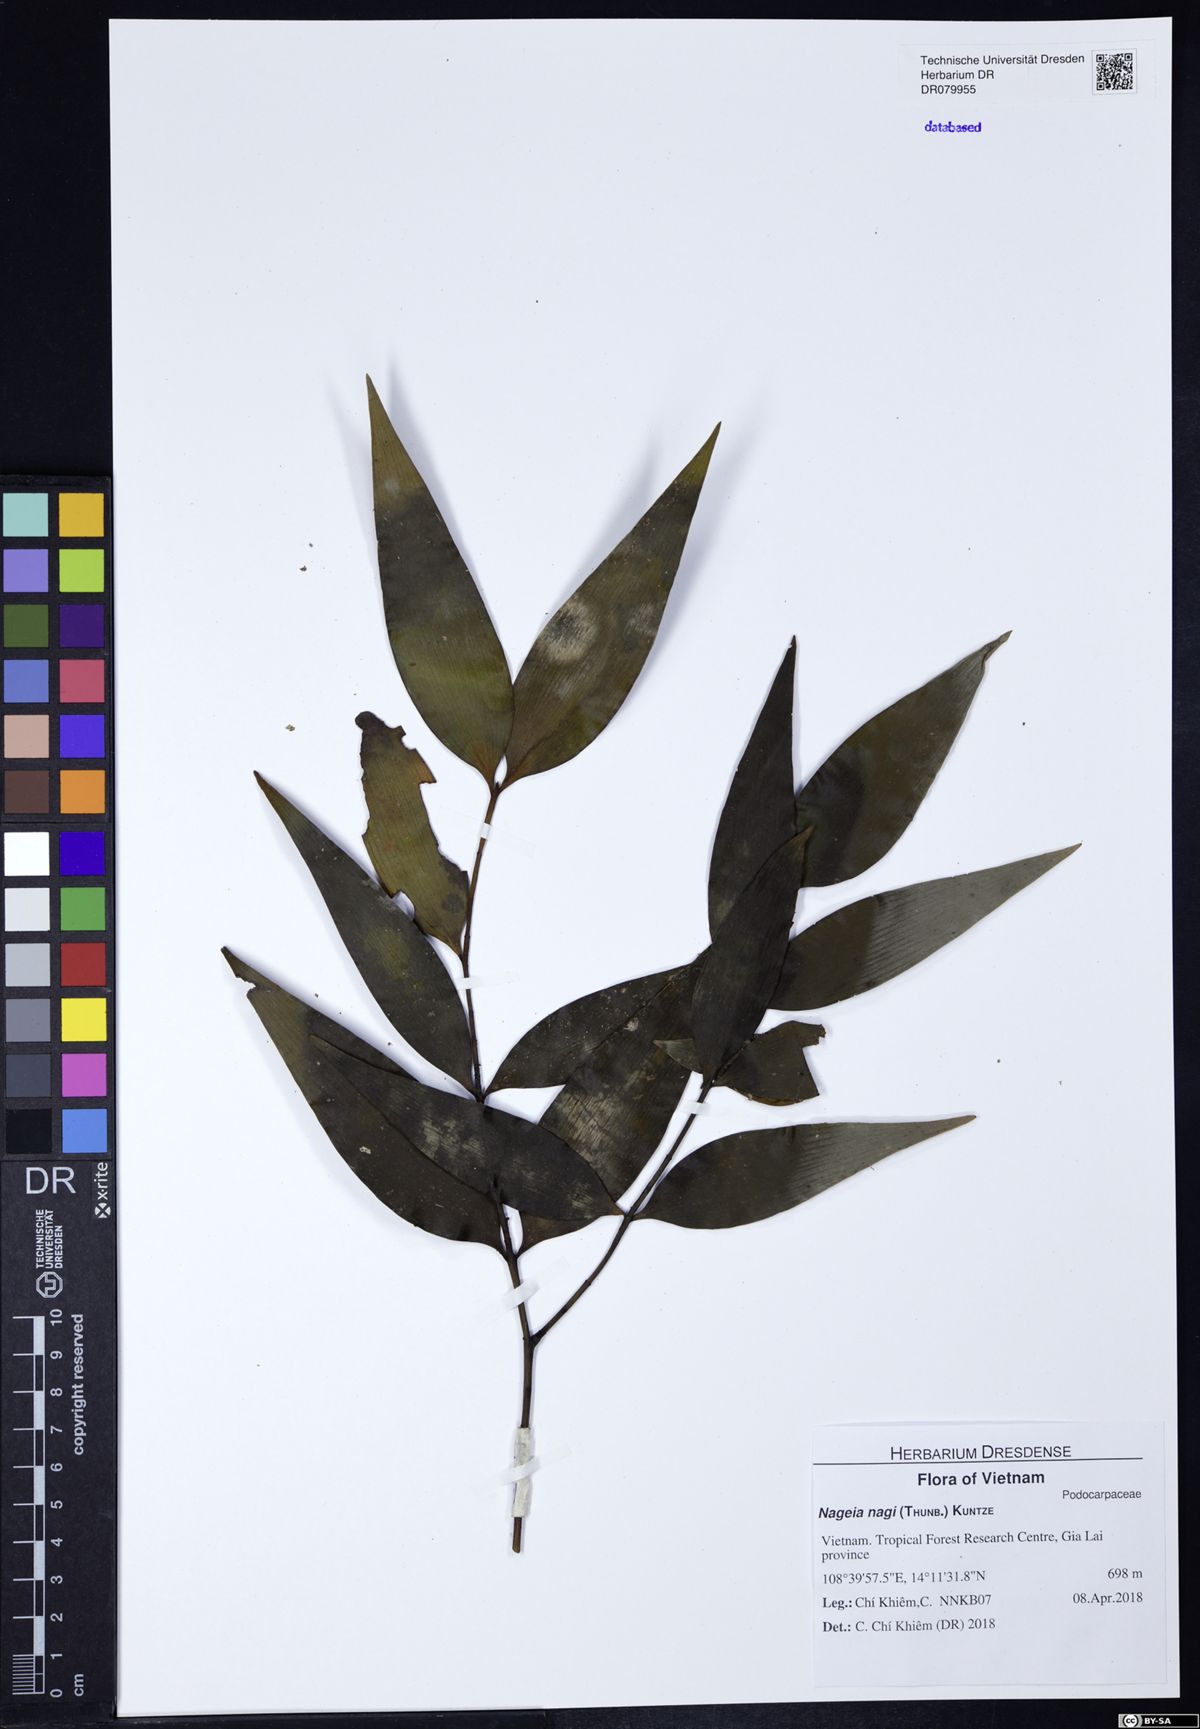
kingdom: Plantae
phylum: Tracheophyta
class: Pinopsida
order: Pinales
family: Podocarpaceae
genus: Nageia
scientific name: Nageia nagi
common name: Kaphal
